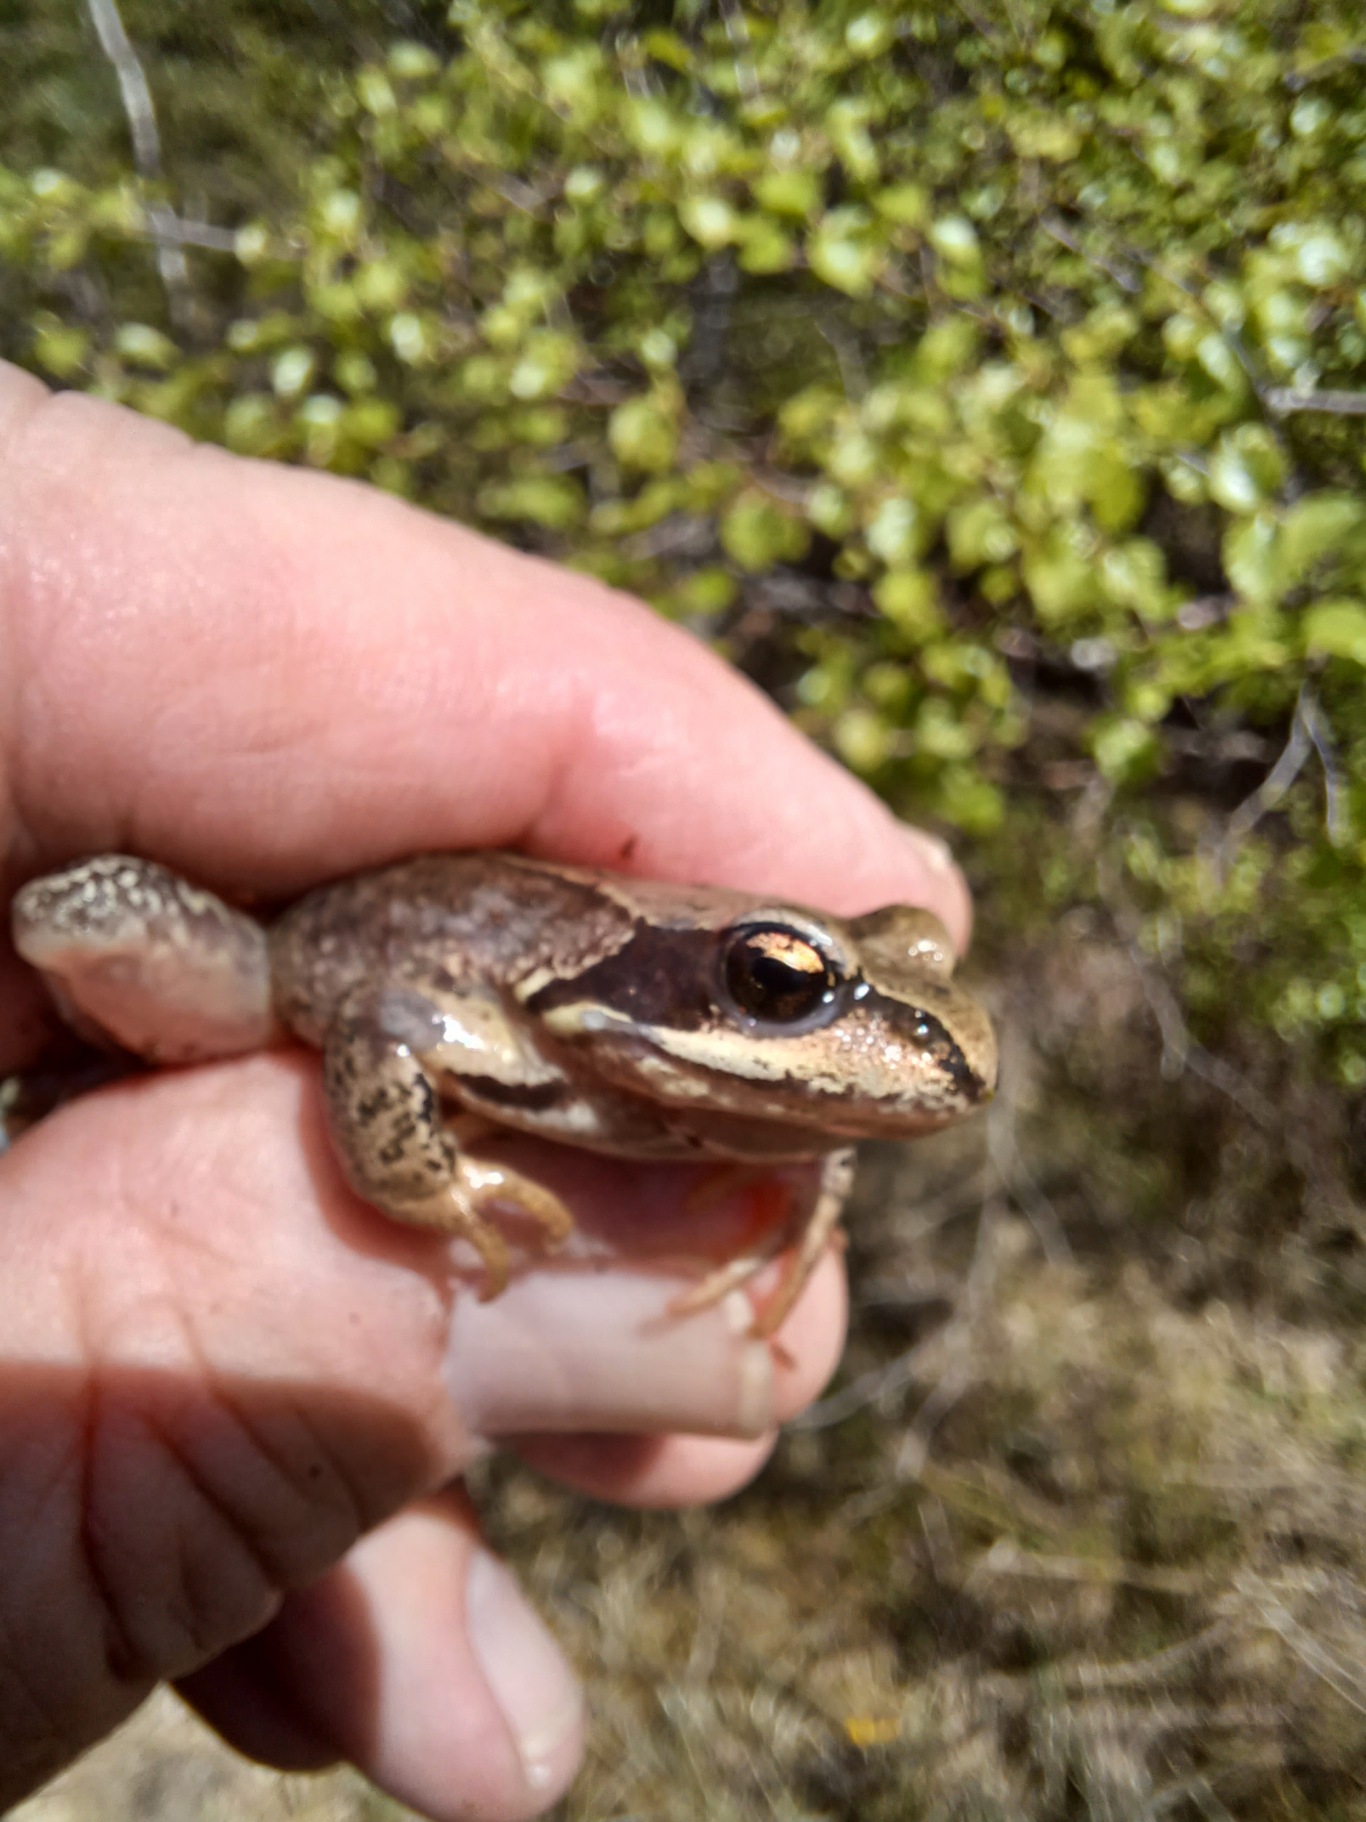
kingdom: Animalia
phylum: Chordata
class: Amphibia
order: Anura
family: Ranidae
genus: Rana
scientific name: Rana temporaria
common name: Butsnudet frø
